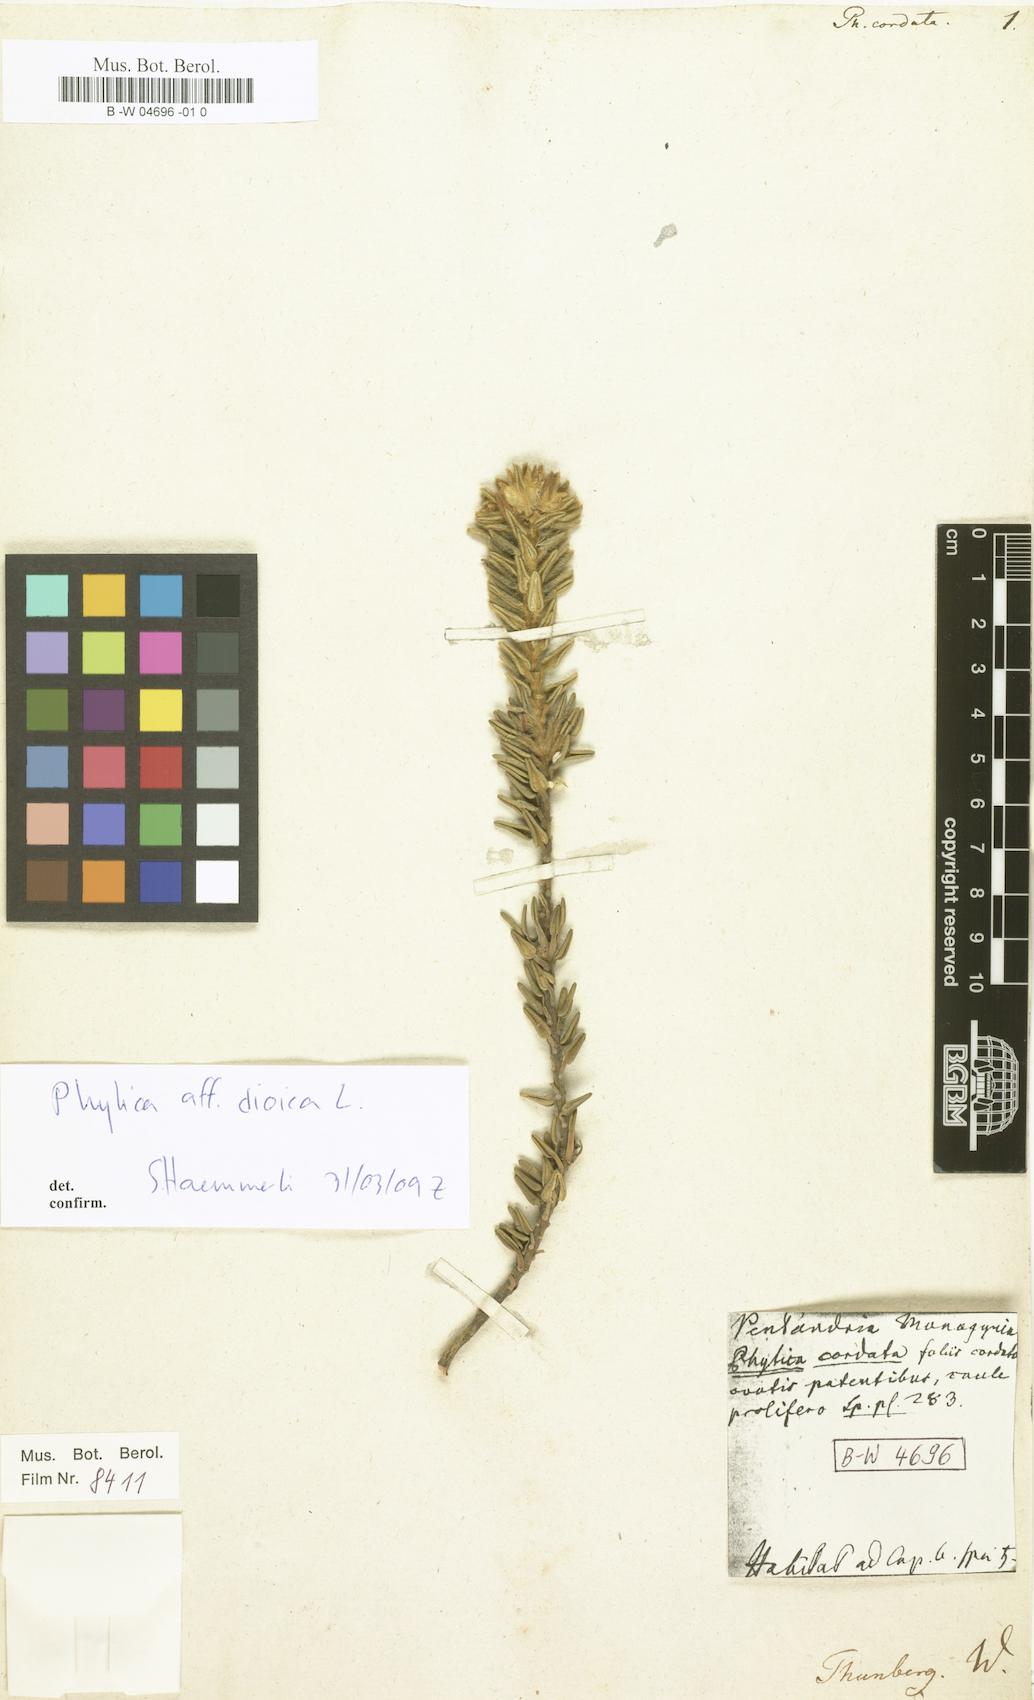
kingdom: Plantae
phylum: Tracheophyta
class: Magnoliopsida
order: Rosales
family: Rhamnaceae
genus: Phylica
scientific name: Phylica
